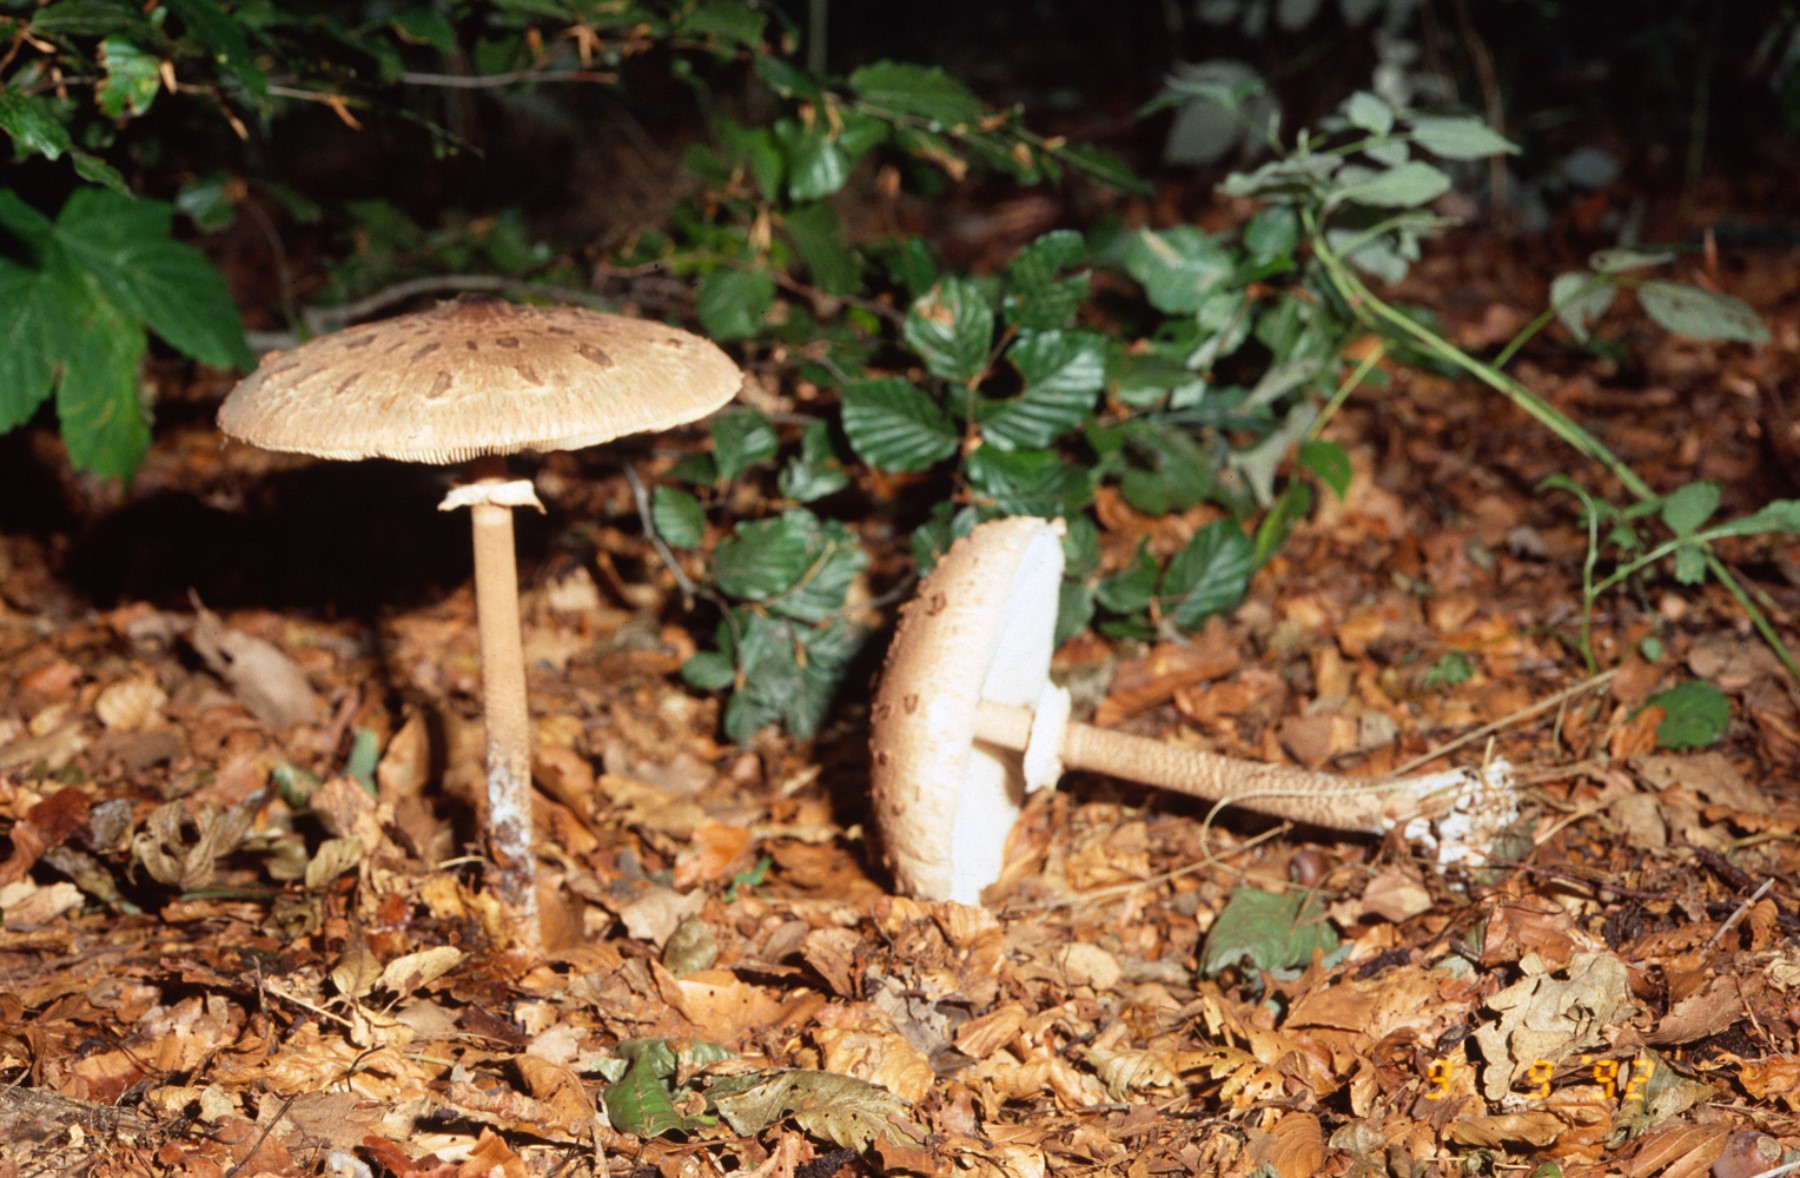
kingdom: Fungi
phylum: Basidiomycota
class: Agaricomycetes
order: Agaricales
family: Agaricaceae
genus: Macrolepiota
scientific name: Macrolepiota procera
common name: stor kæmpeparasolhat
